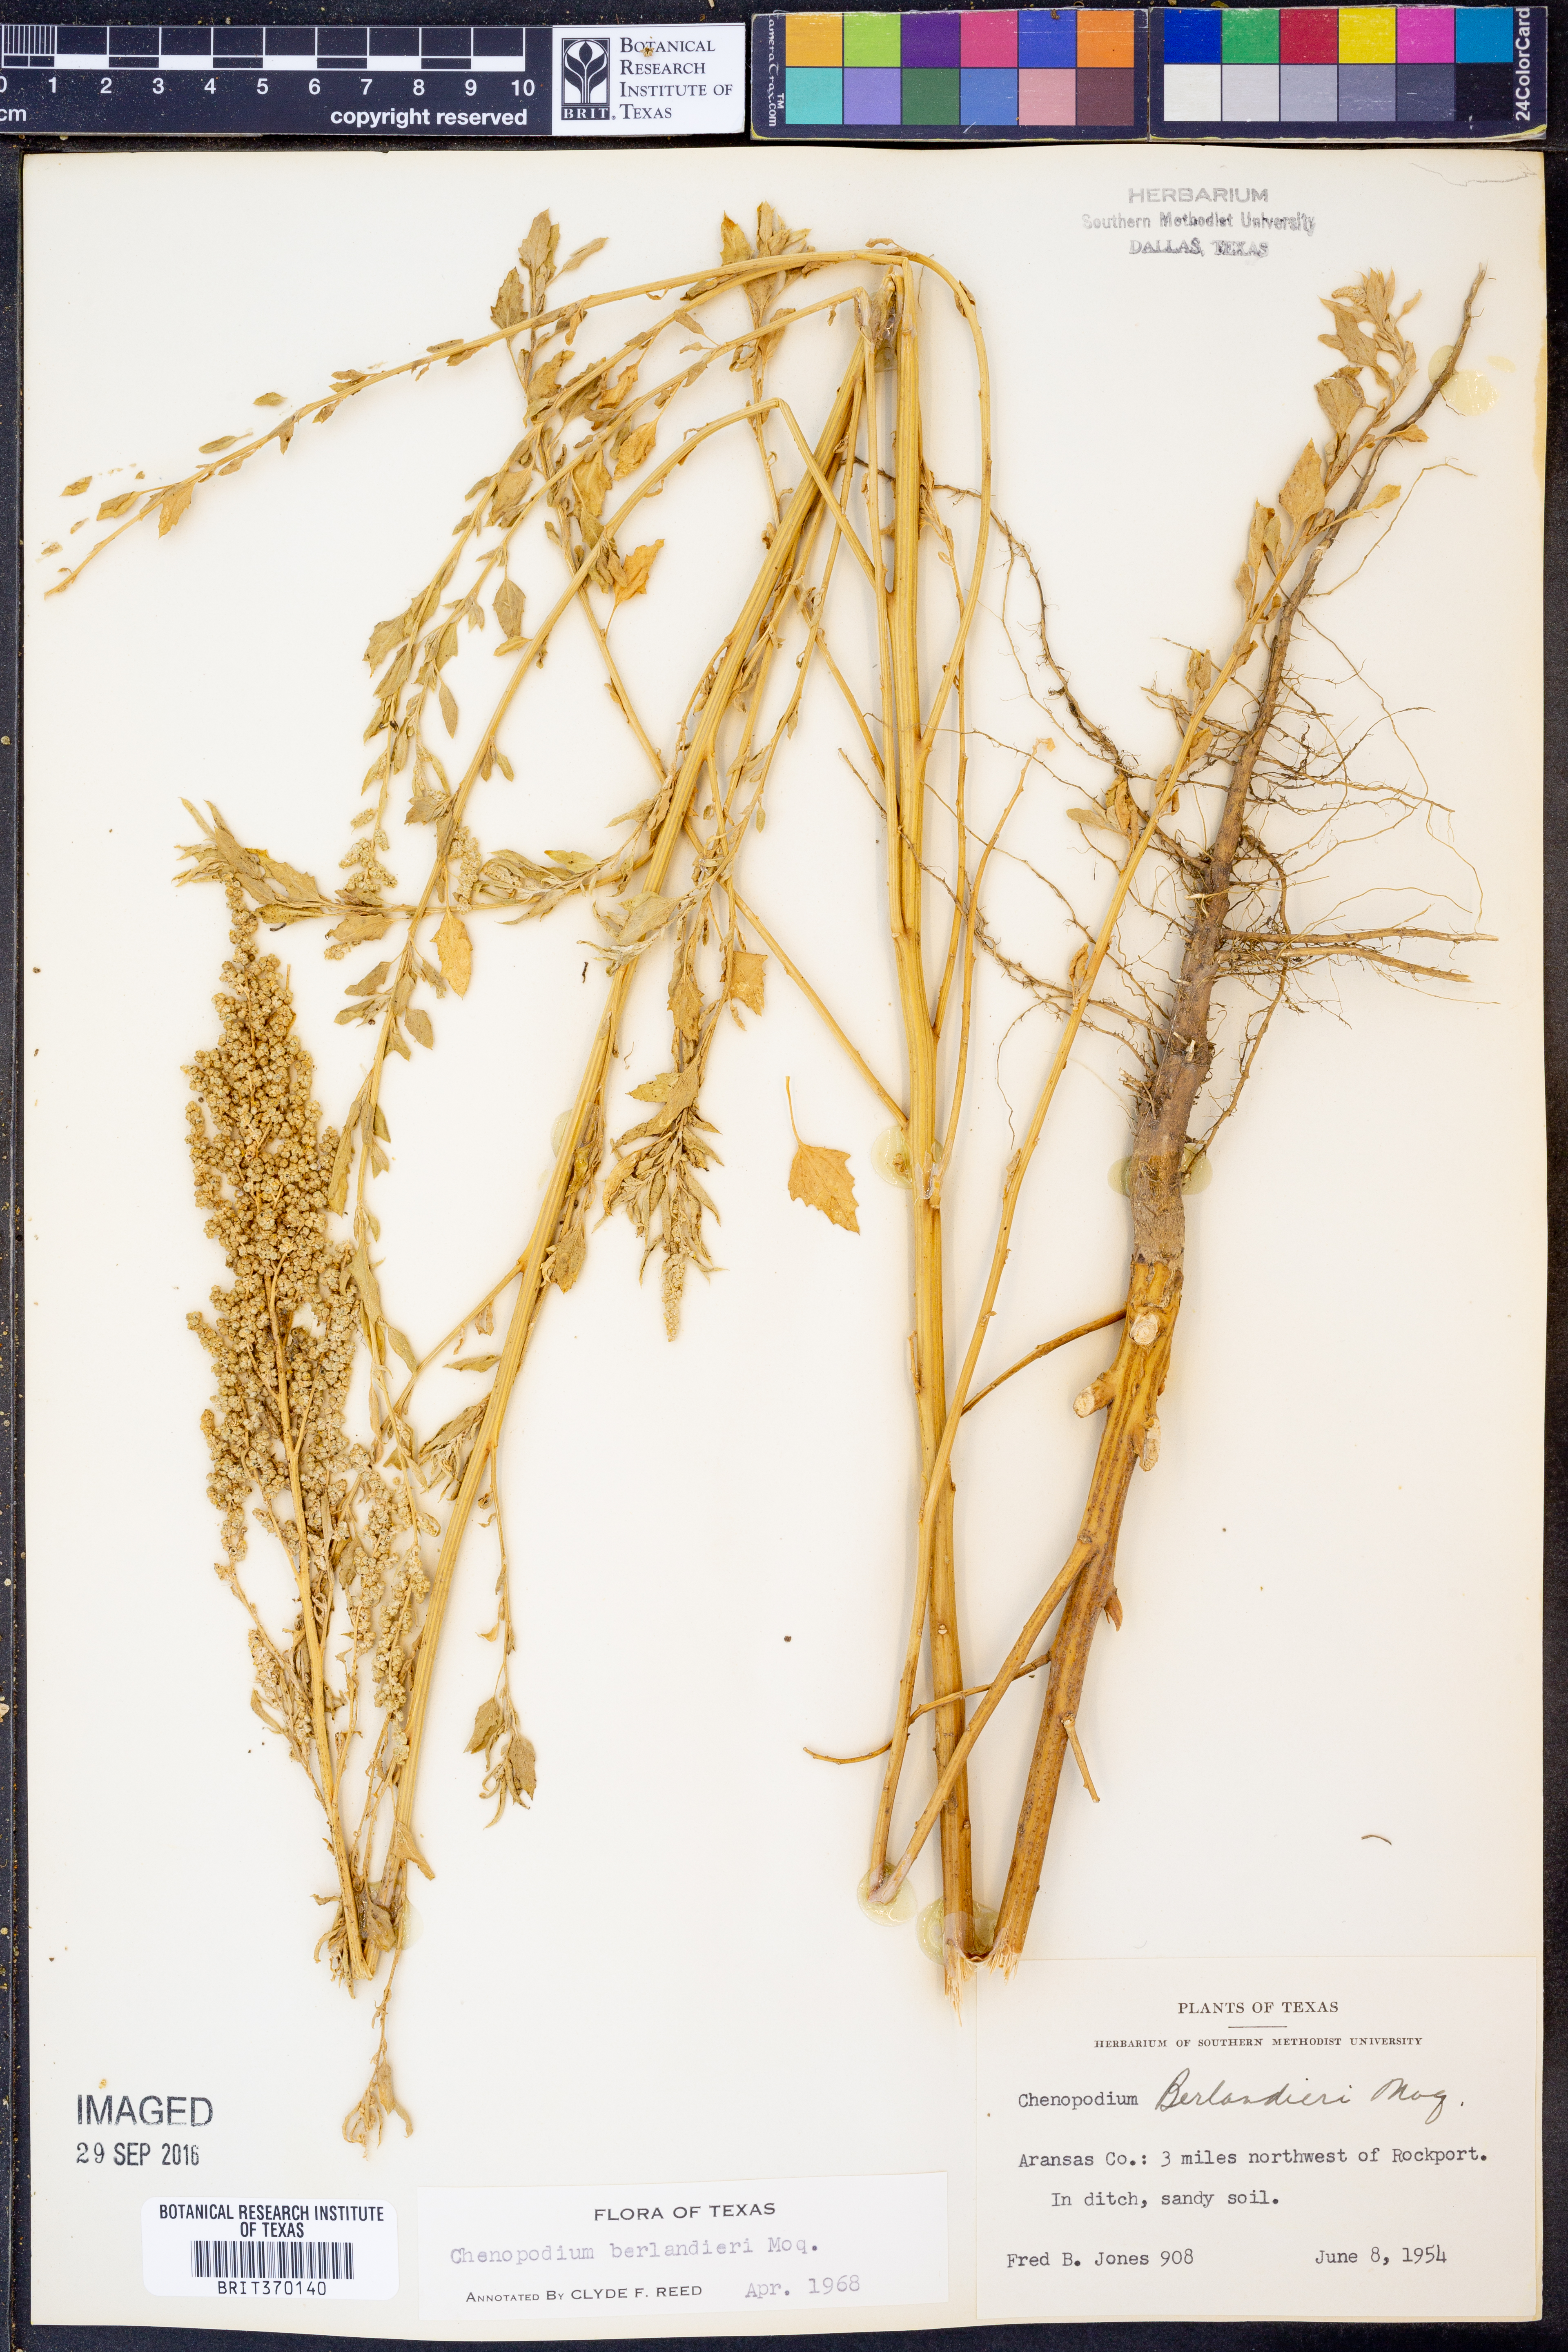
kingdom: Plantae
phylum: Tracheophyta
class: Magnoliopsida
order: Caryophyllales
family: Amaranthaceae
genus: Chenopodium
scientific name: Chenopodium berlandieri
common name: Pit-seed goosefoot
